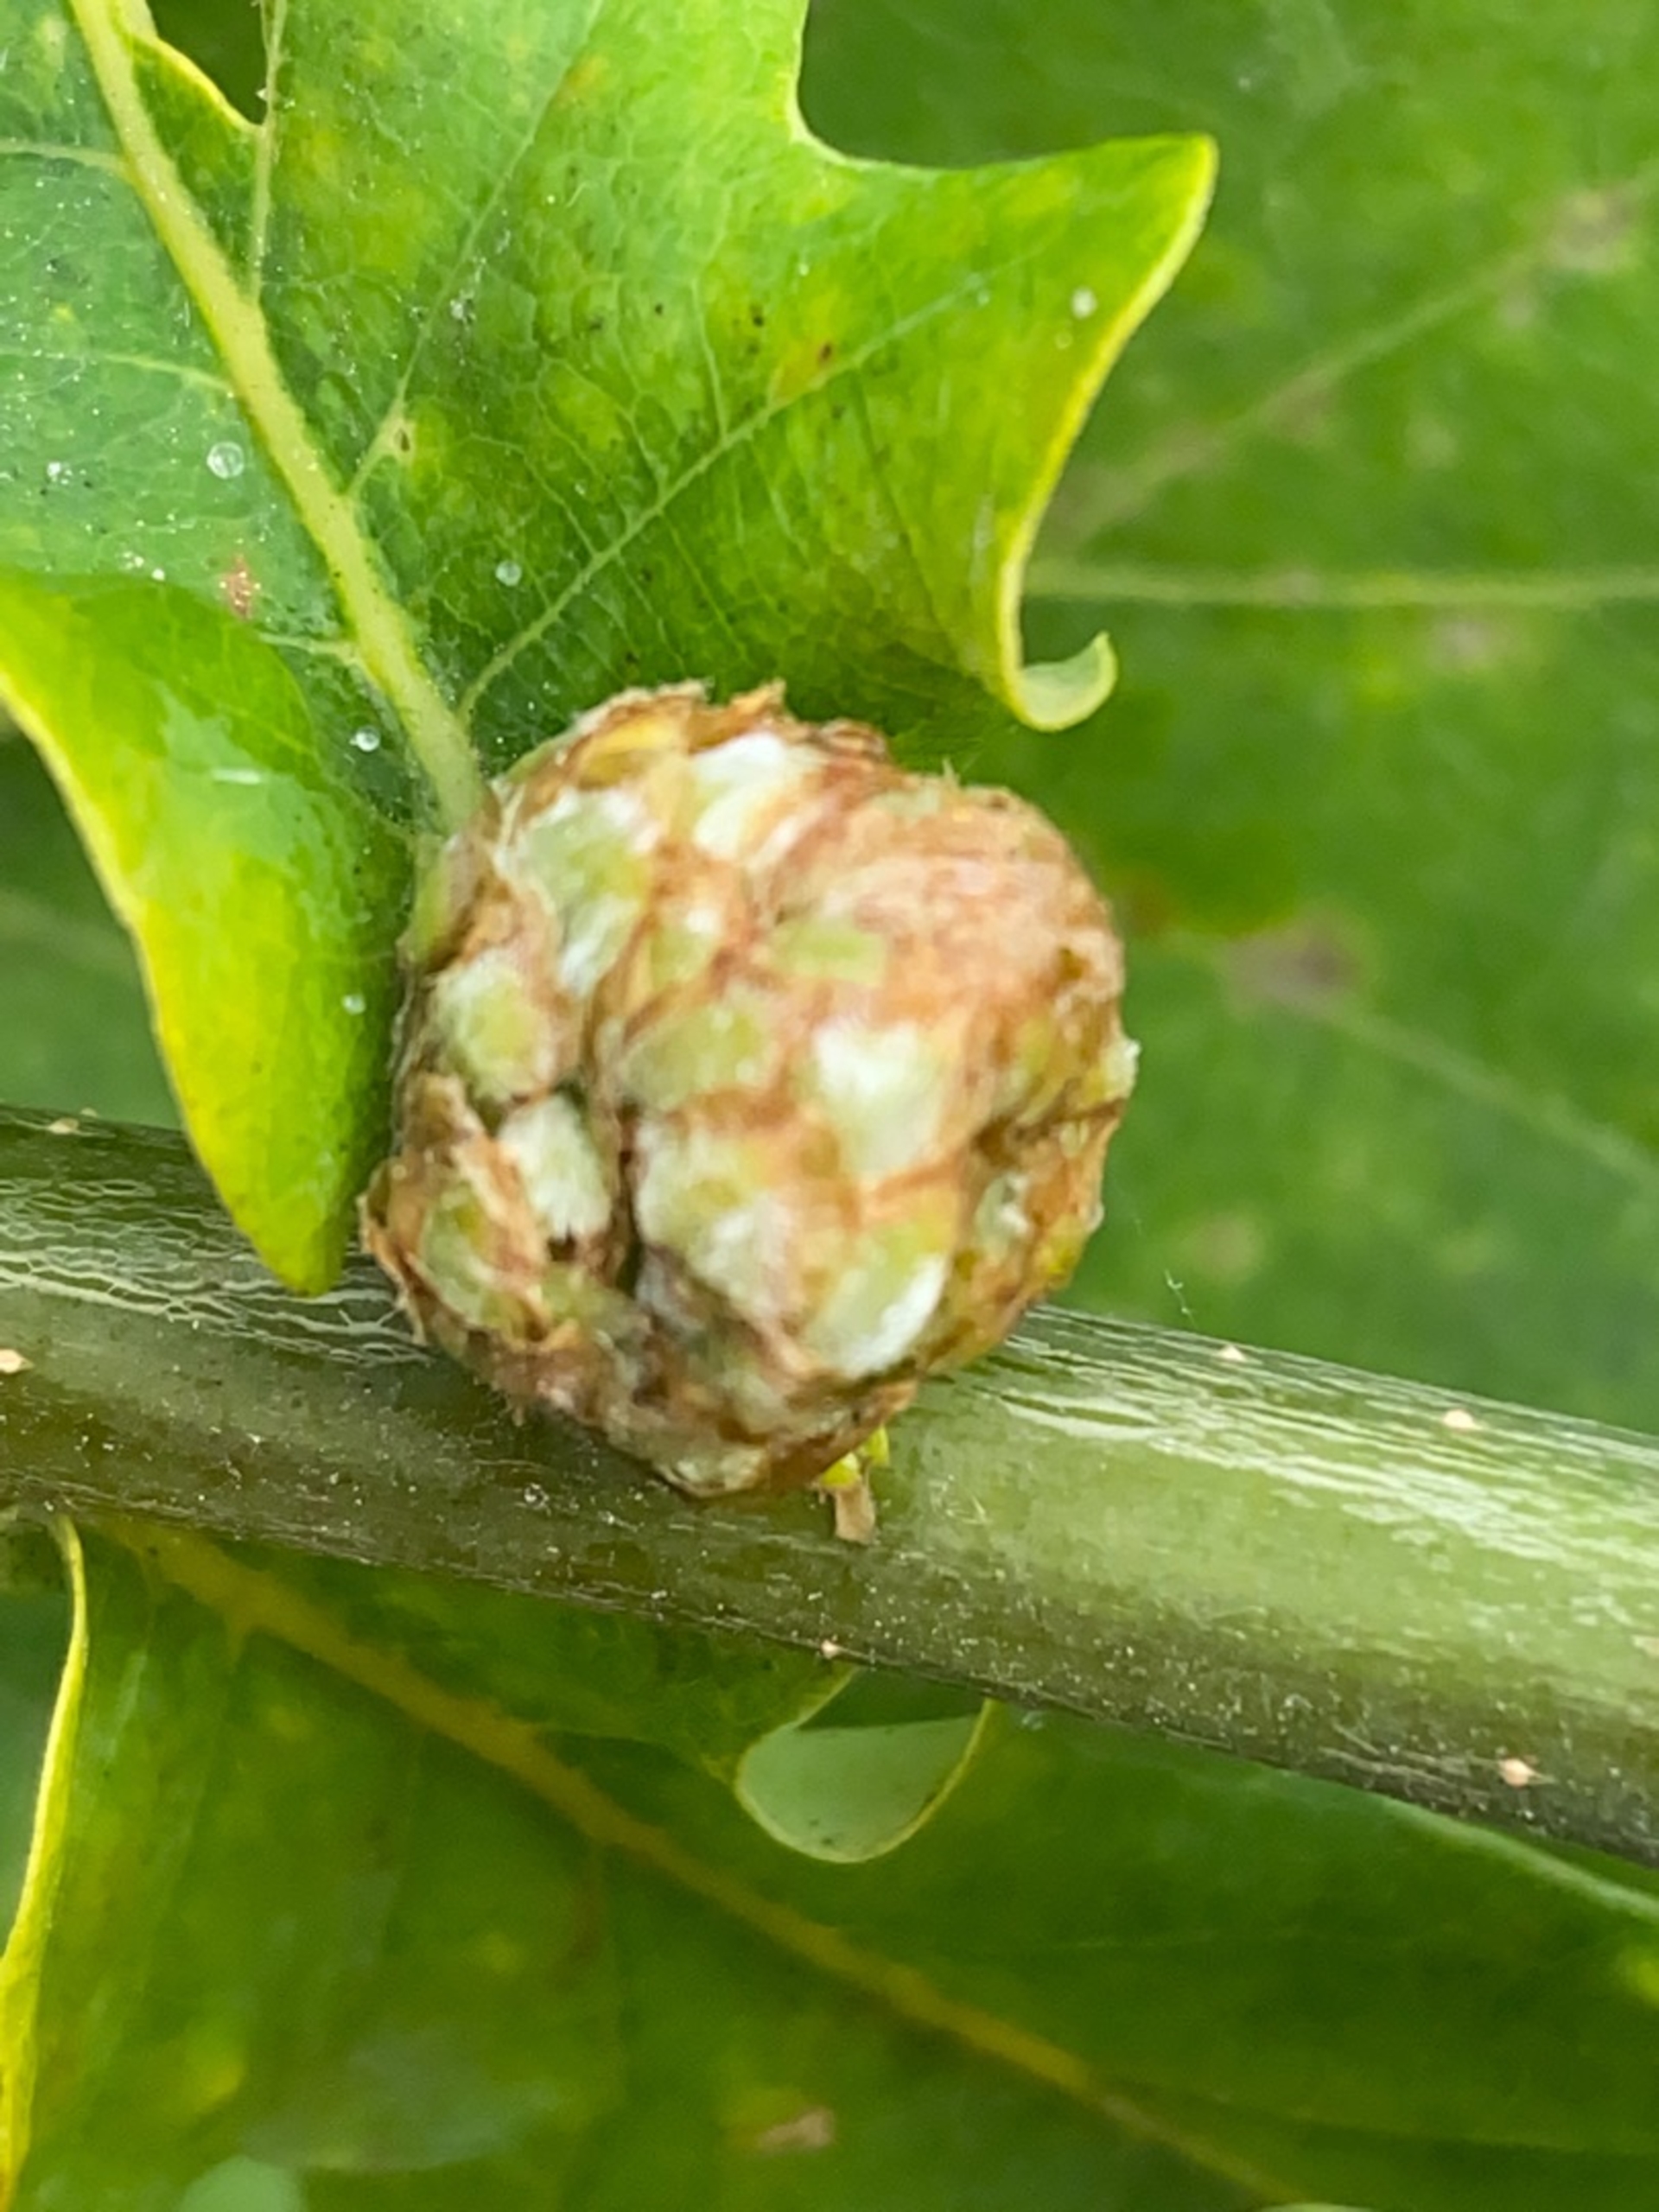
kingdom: Animalia
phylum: Arthropoda
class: Insecta
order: Hymenoptera
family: Cynipidae
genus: Andricus
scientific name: Andricus foecundatrix
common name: Artiskokgalhveps
